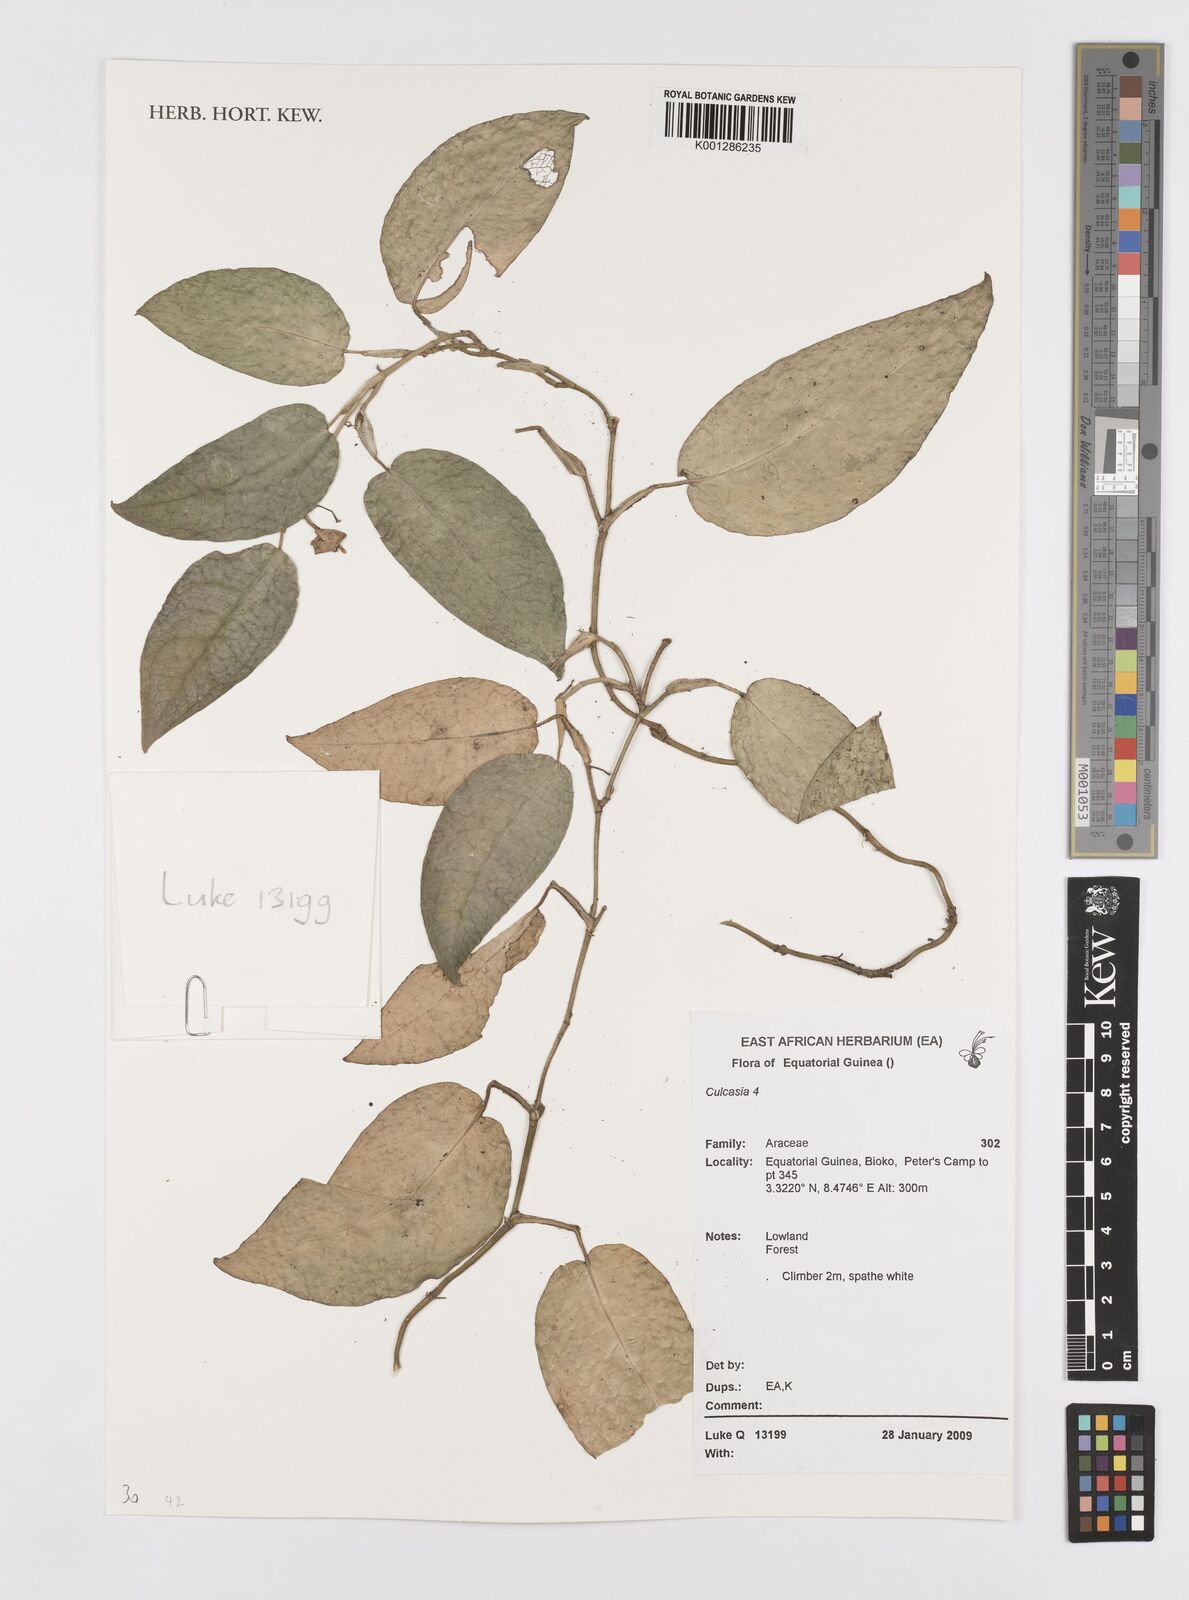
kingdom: Plantae
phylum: Tracheophyta
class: Liliopsida
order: Alismatales
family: Araceae
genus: Culcasia
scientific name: Culcasia
